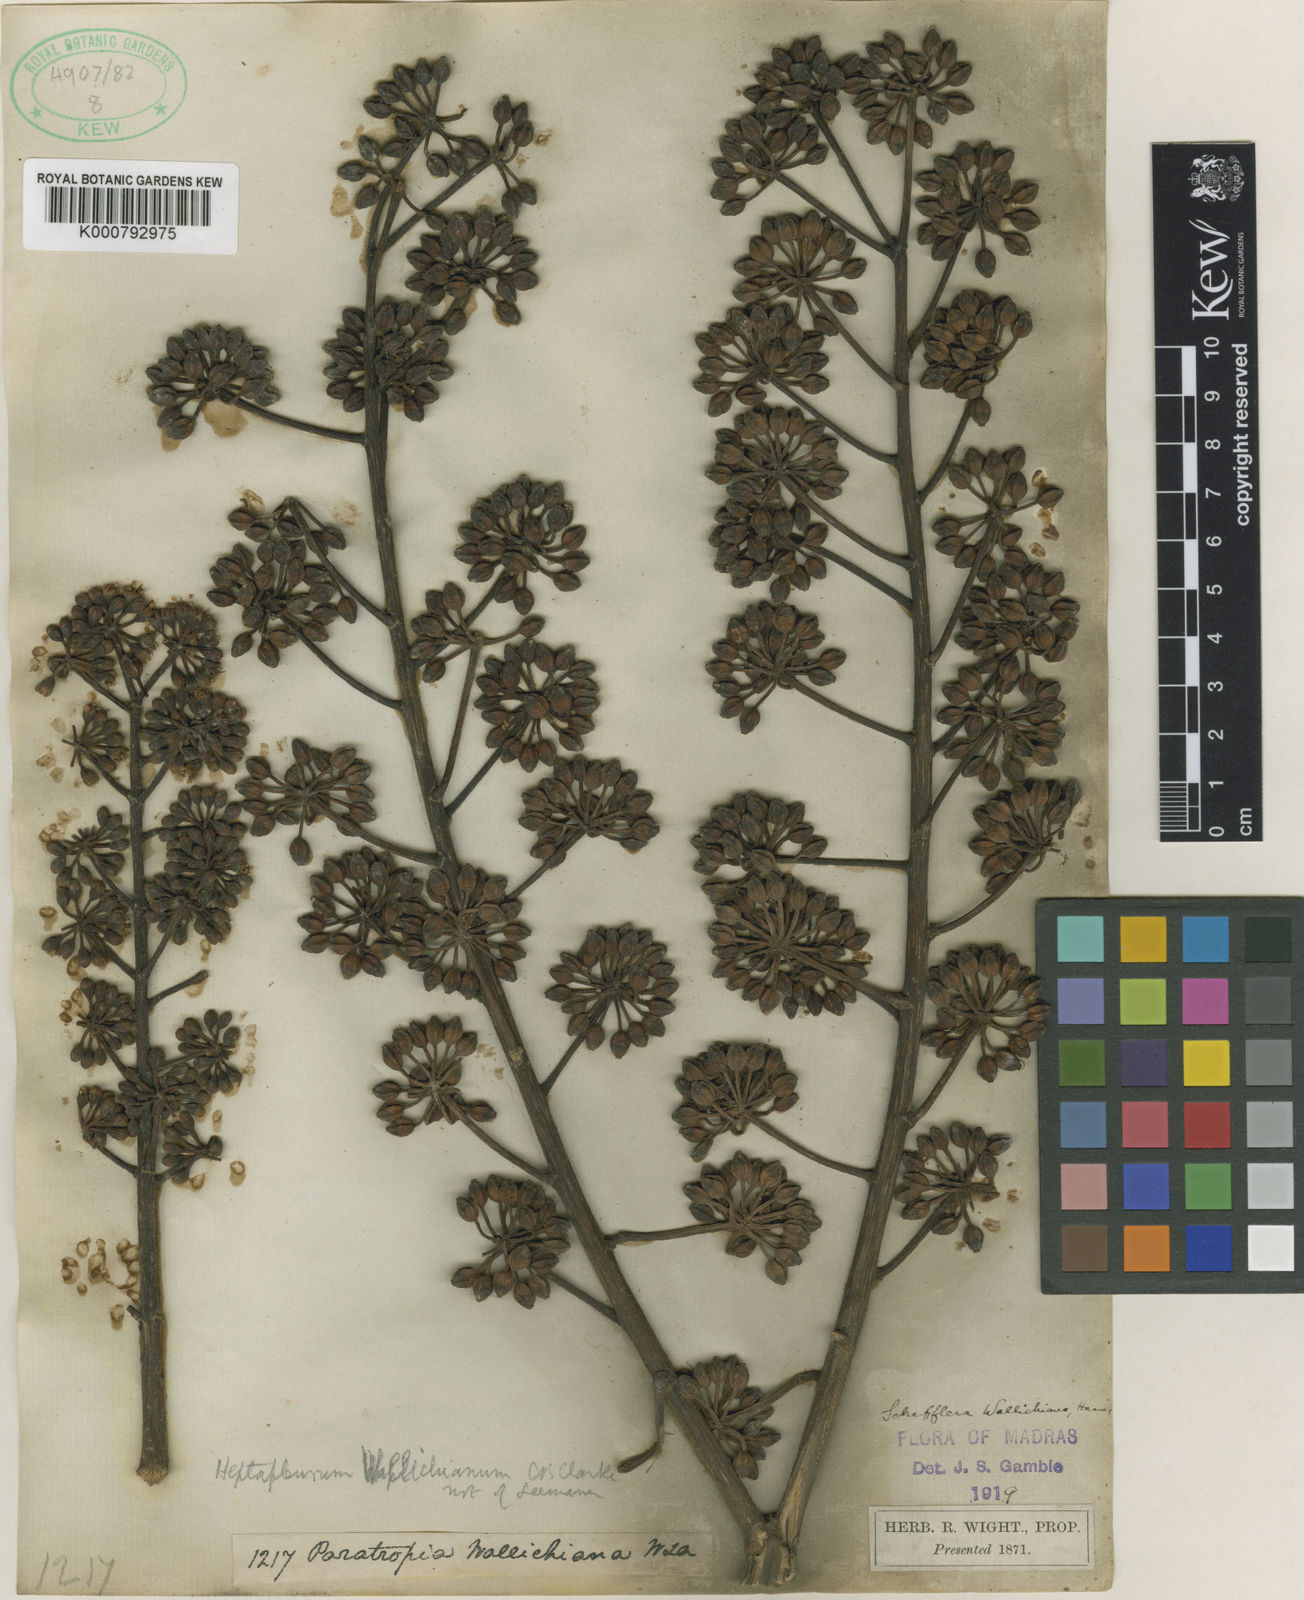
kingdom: Plantae
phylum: Tracheophyta
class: Magnoliopsida
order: Apiales
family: Araliaceae
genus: Heptapleurum
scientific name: Heptapleurum wallichianum
